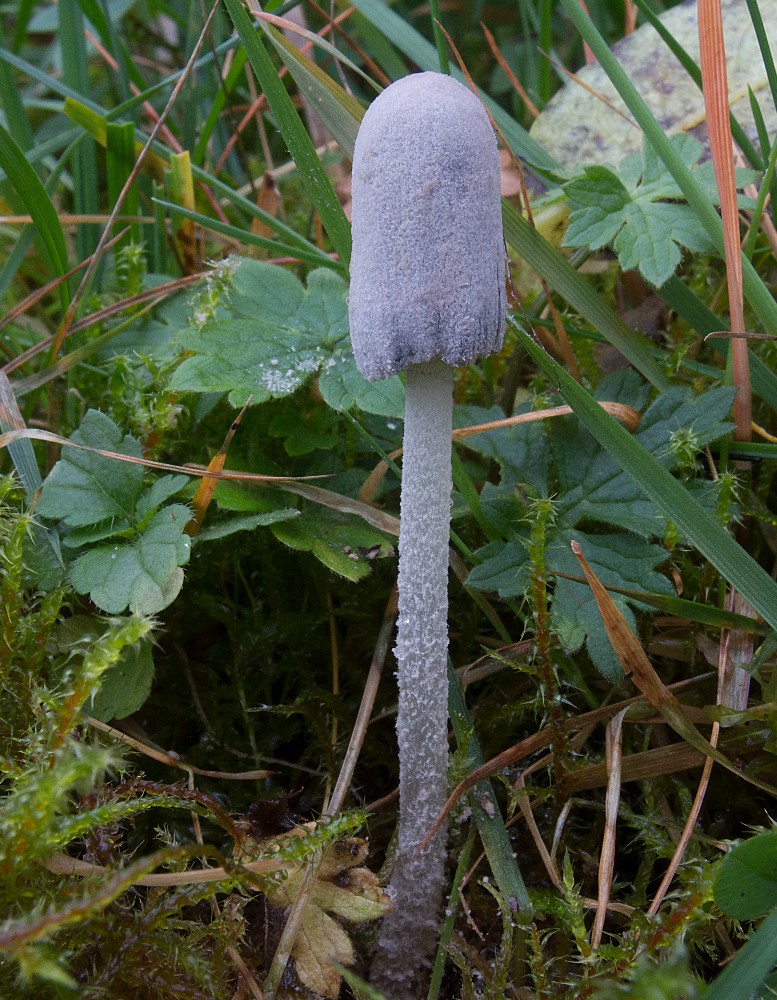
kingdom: Fungi
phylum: Basidiomycota
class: Agaricomycetes
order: Agaricales
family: Psathyrellaceae
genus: Coprinopsis
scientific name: Coprinopsis martinii
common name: rigkær-blækhat
